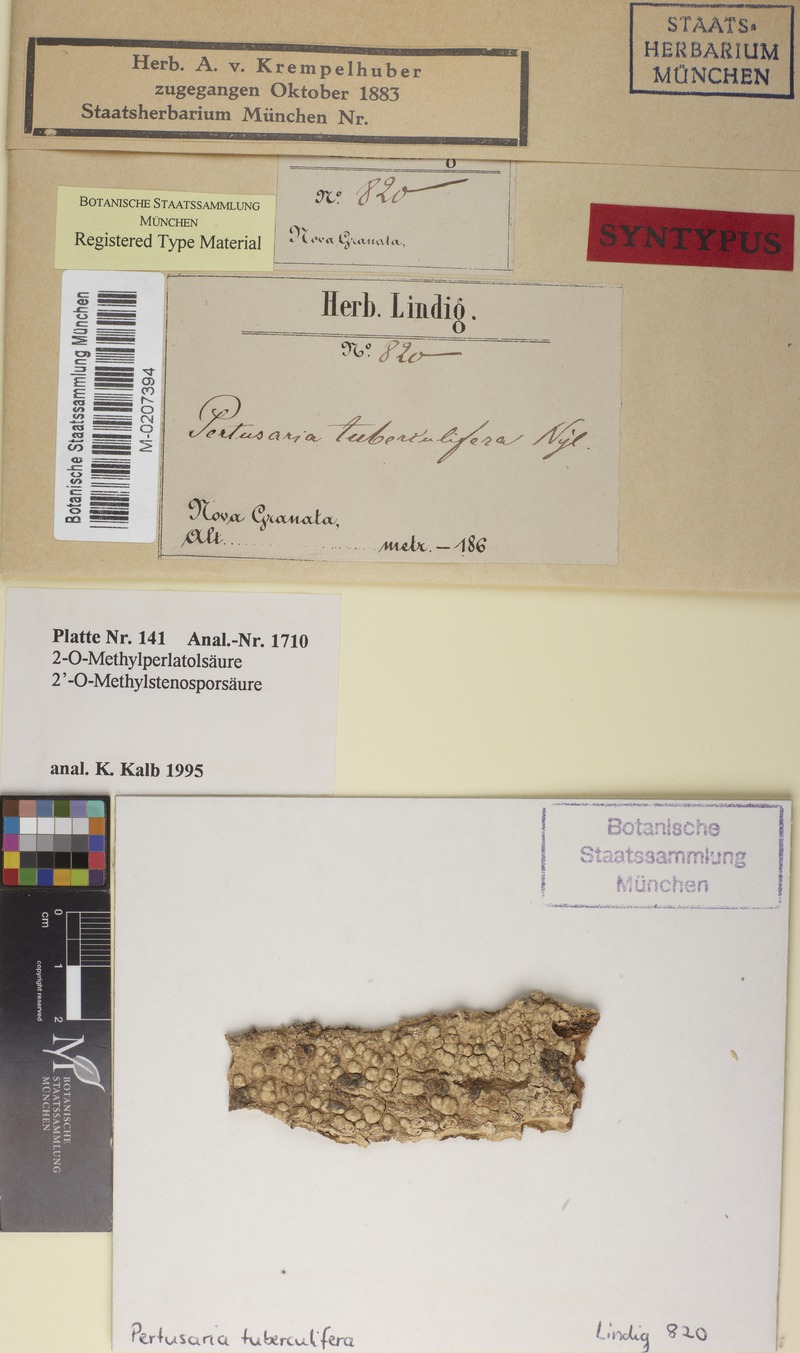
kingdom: Fungi
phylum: Ascomycota
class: Lecanoromycetes
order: Pertusariales
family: Pertusariaceae
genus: Pertusaria
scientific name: Pertusaria tuberculifera
